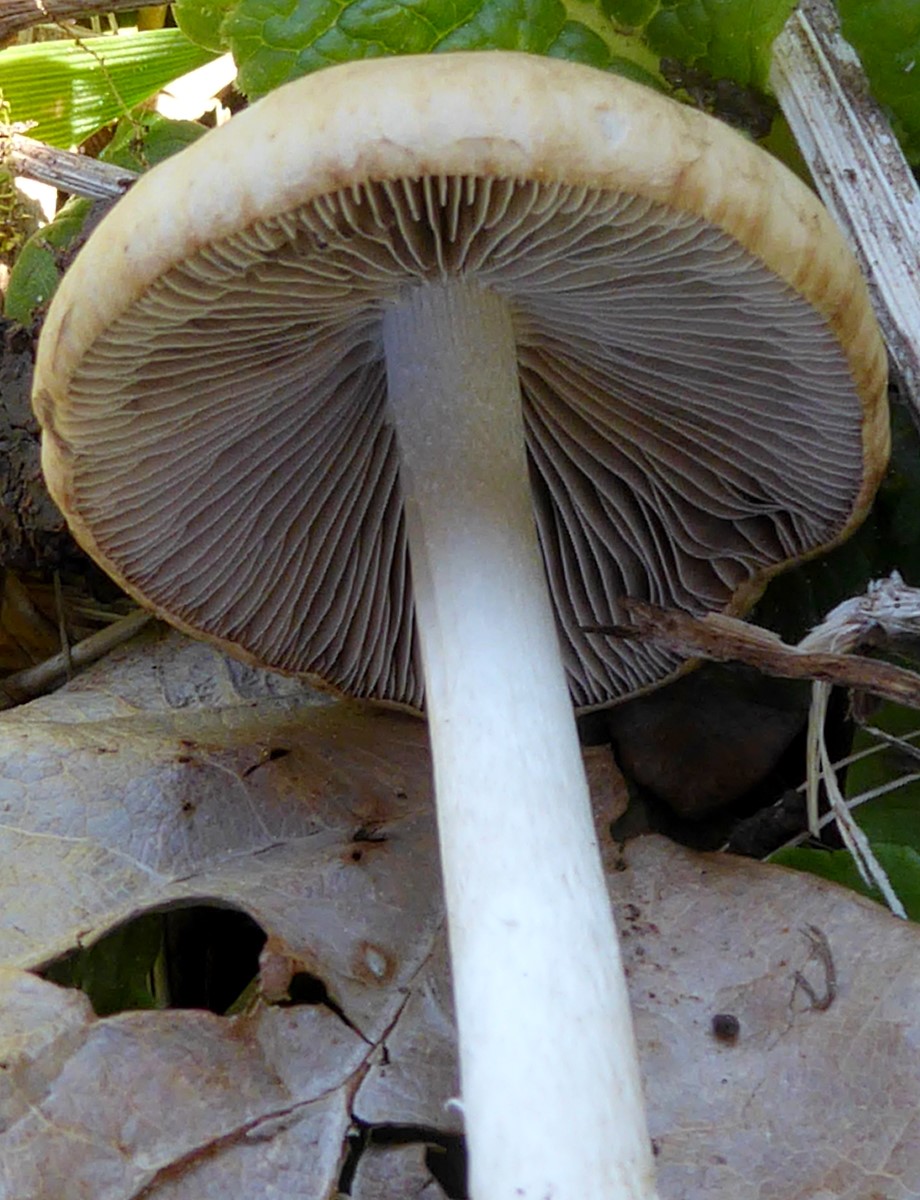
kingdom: Fungi
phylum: Basidiomycota
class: Agaricomycetes
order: Agaricales
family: Psathyrellaceae
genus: Psathyrella
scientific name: Psathyrella
